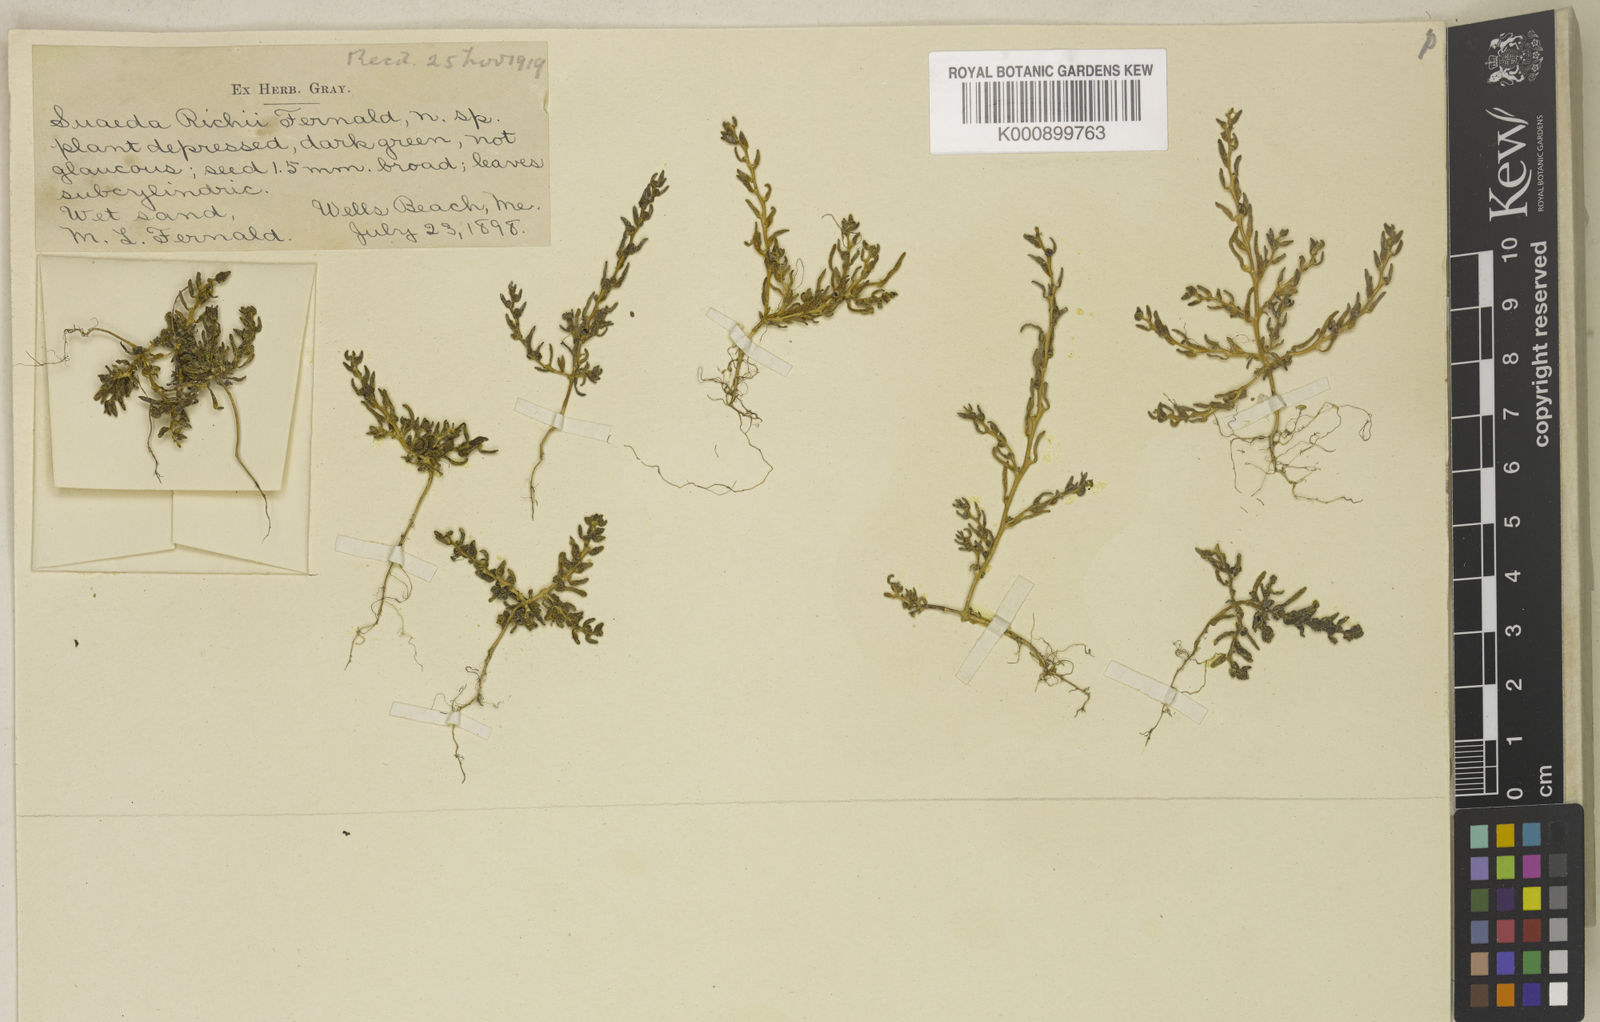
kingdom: Plantae
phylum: Tracheophyta
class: Magnoliopsida
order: Caryophyllales
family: Amaranthaceae
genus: Suaeda
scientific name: Suaeda maritima
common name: Annual sea-blite
